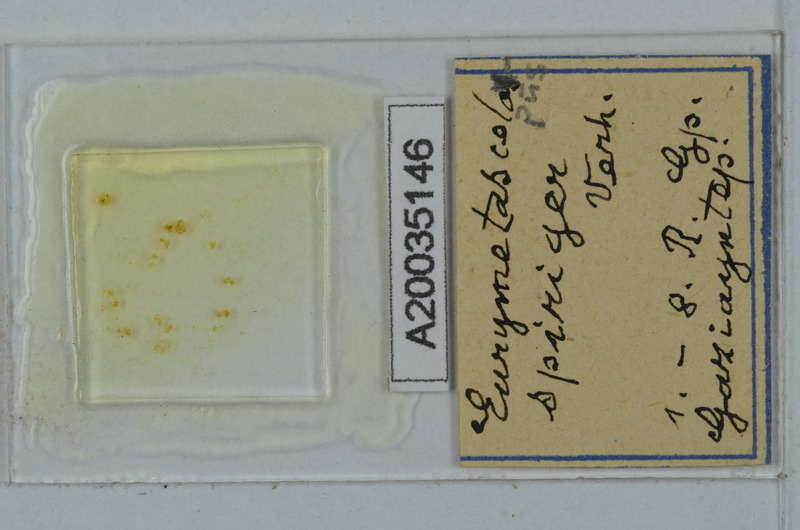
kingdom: Animalia
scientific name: Animalia
